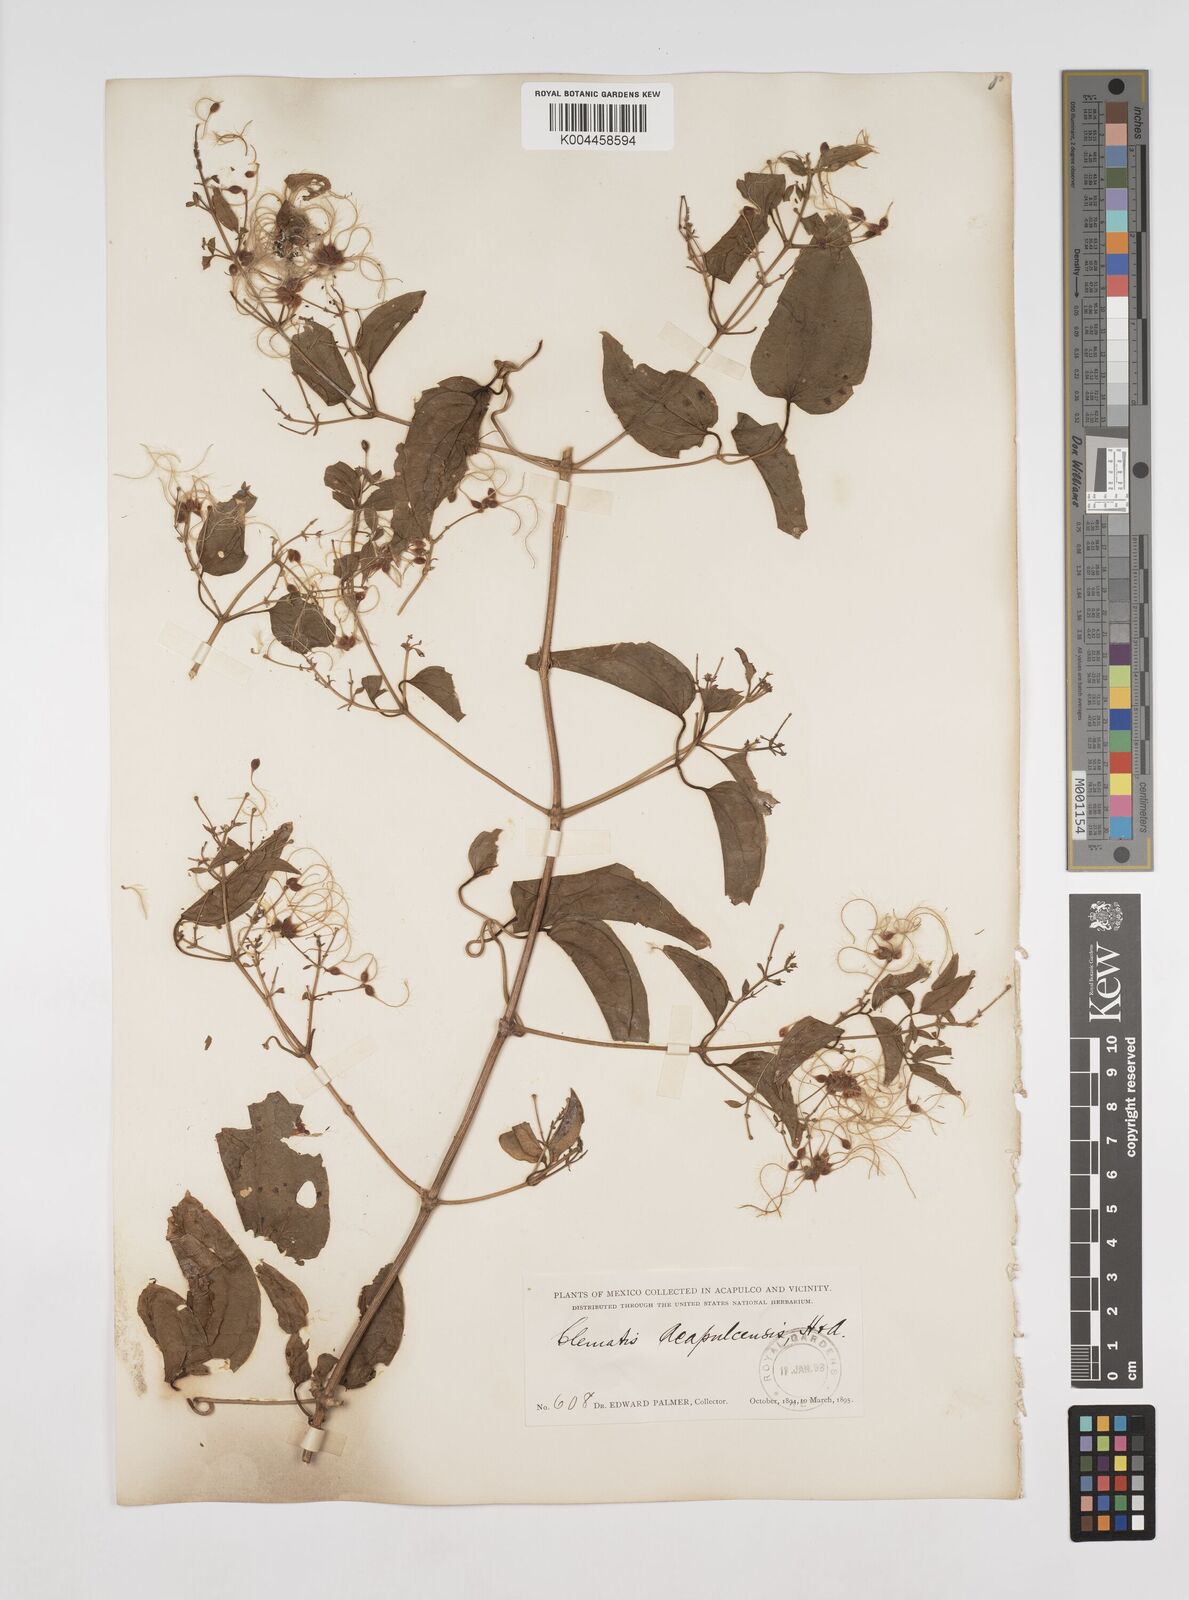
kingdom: Plantae
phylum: Tracheophyta
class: Magnoliopsida
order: Ranunculales
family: Ranunculaceae
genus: Clematis
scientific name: Clematis acapulcensis
